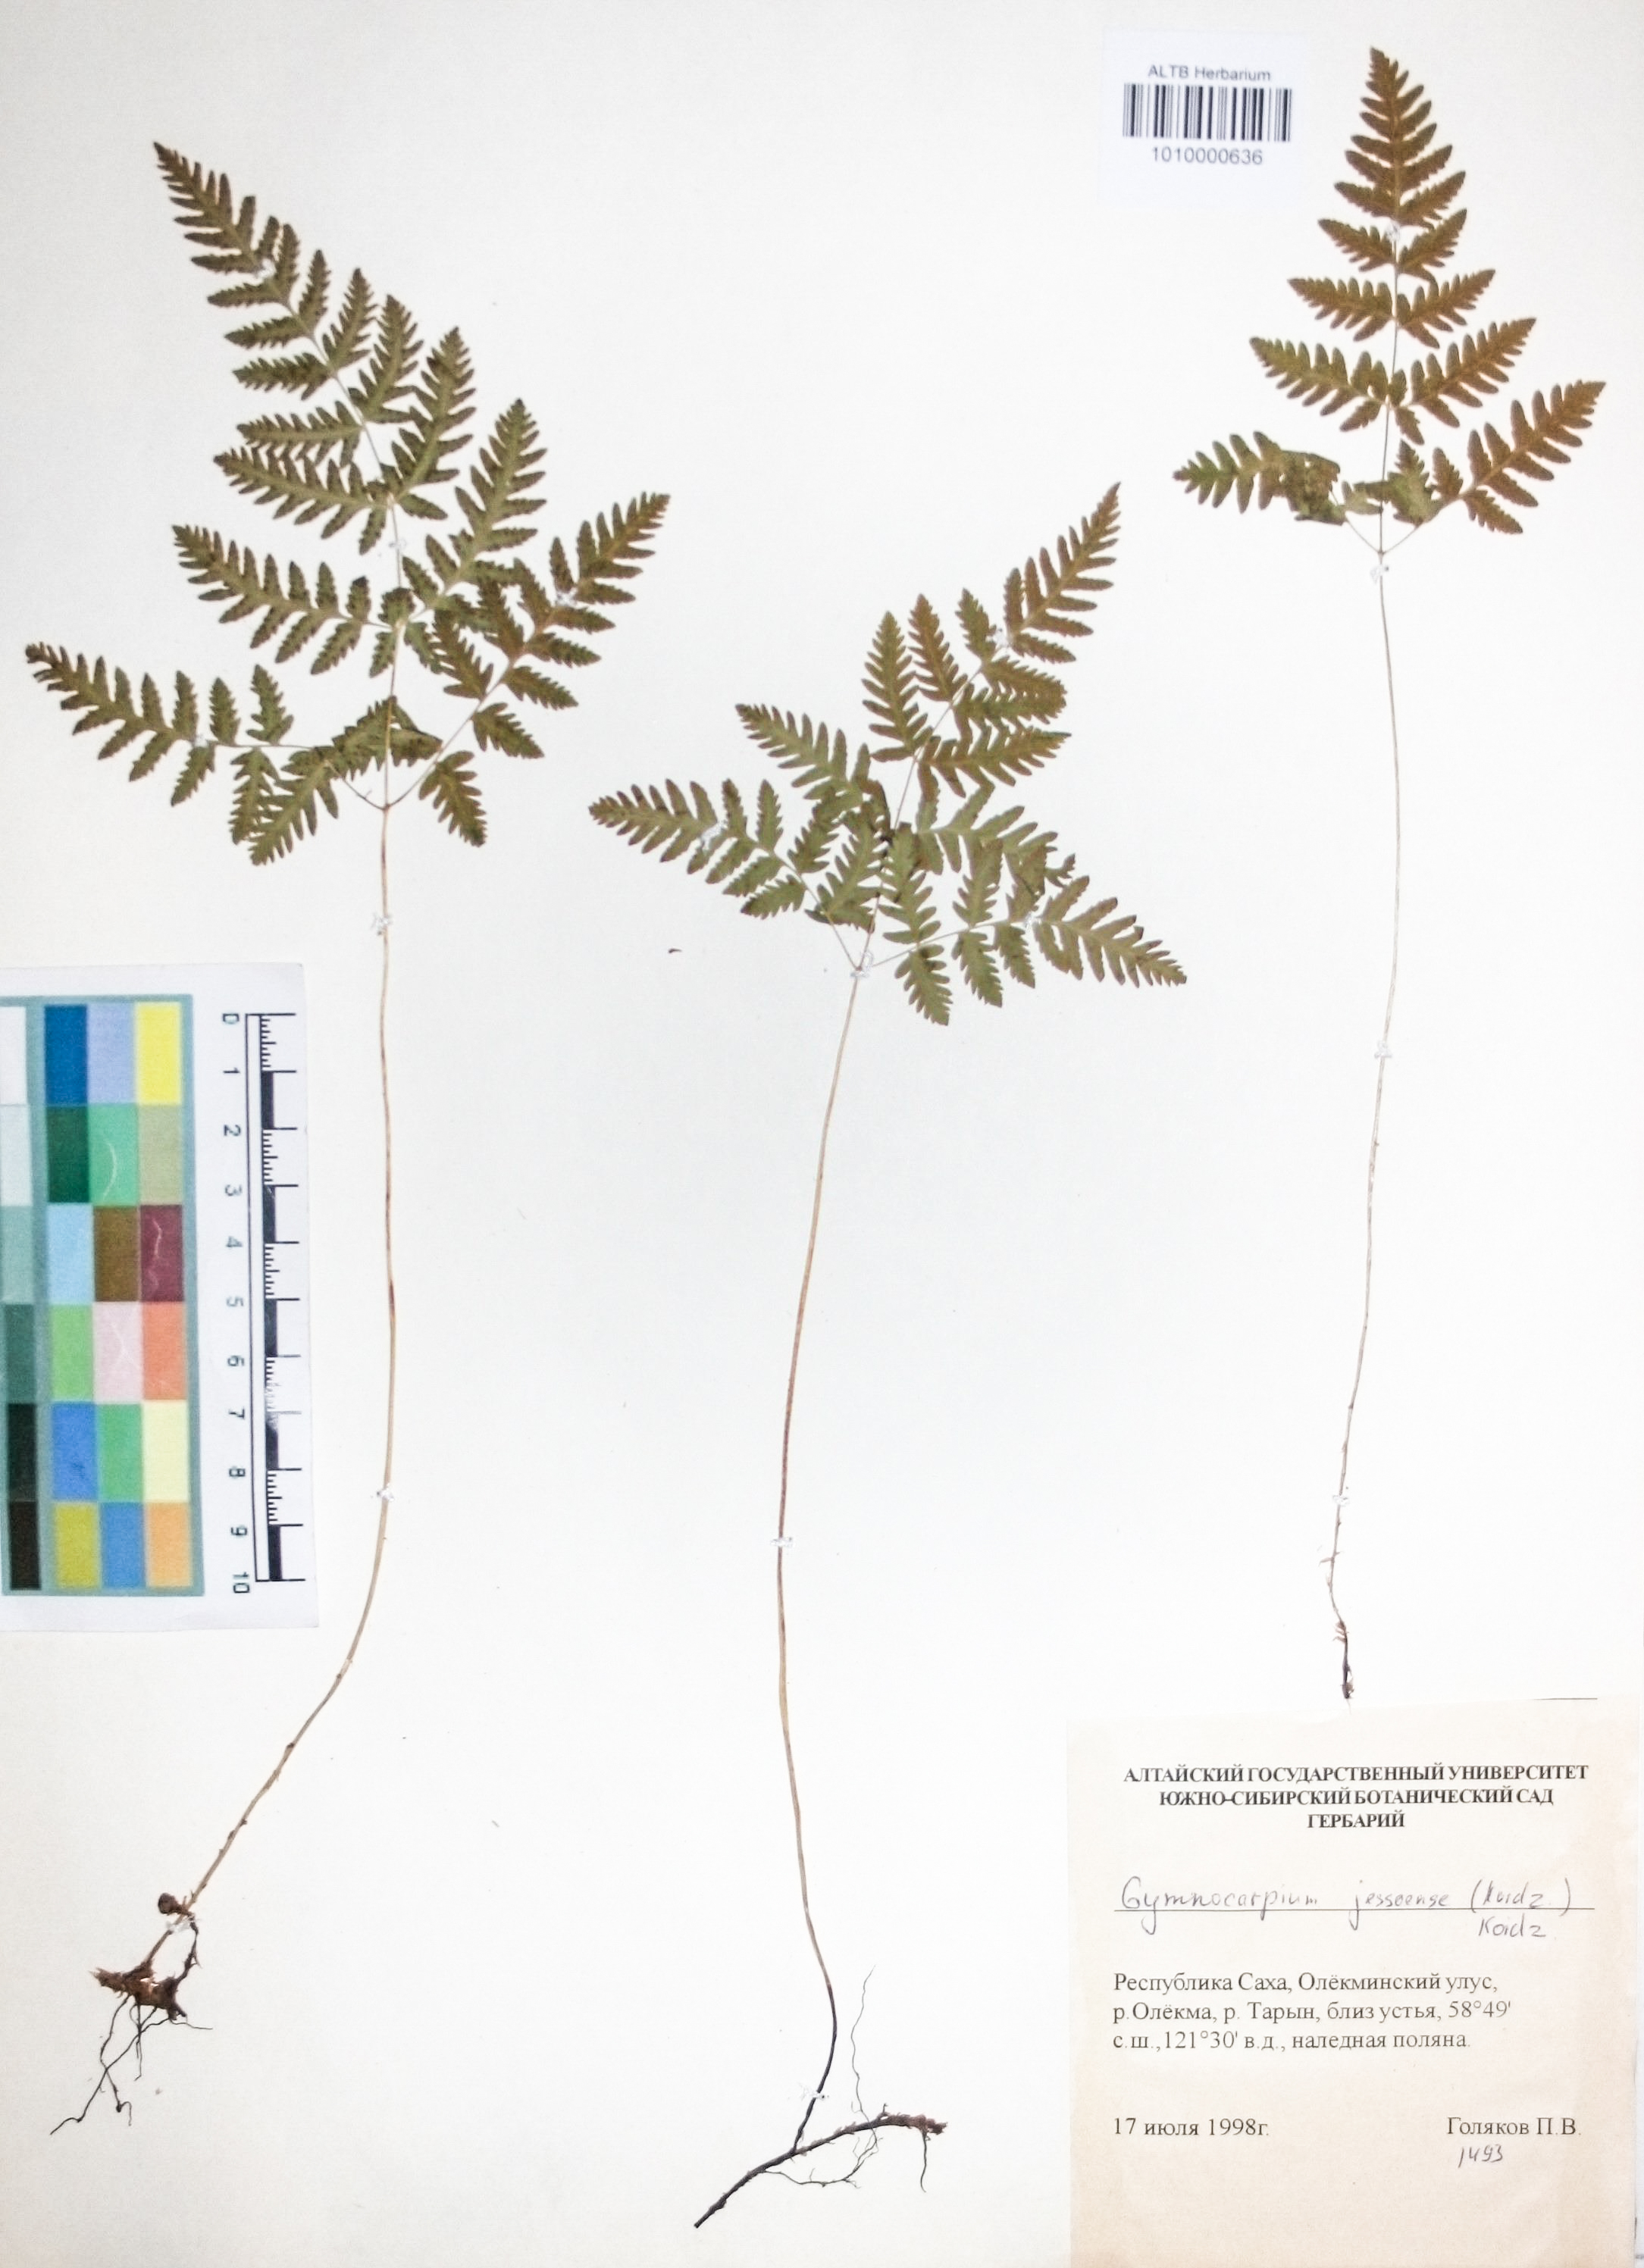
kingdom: Plantae
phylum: Tracheophyta
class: Polypodiopsida
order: Polypodiales
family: Cystopteridaceae
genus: Gymnocarpium
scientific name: Gymnocarpium jessoense
